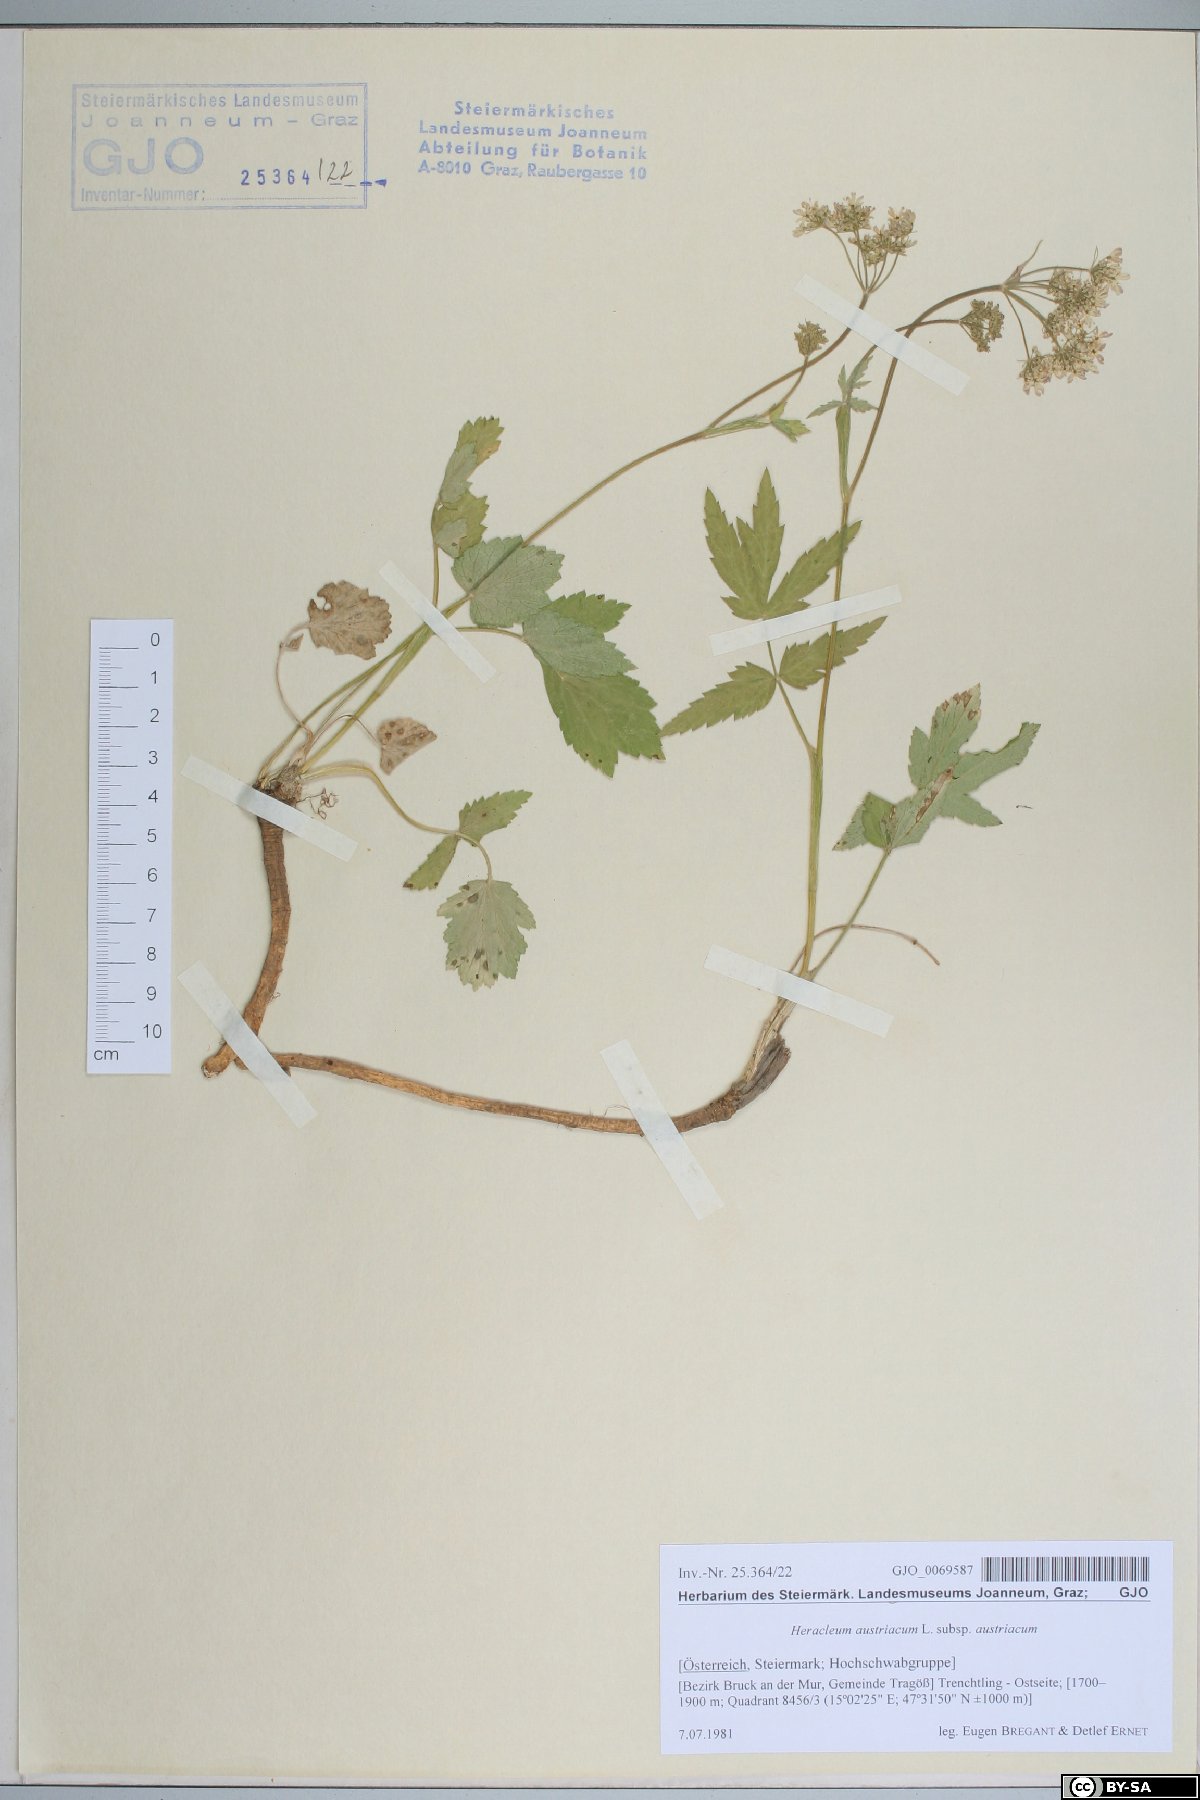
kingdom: Plantae
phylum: Tracheophyta
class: Magnoliopsida
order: Apiales
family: Apiaceae
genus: Heracleum
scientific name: Heracleum austriacum
